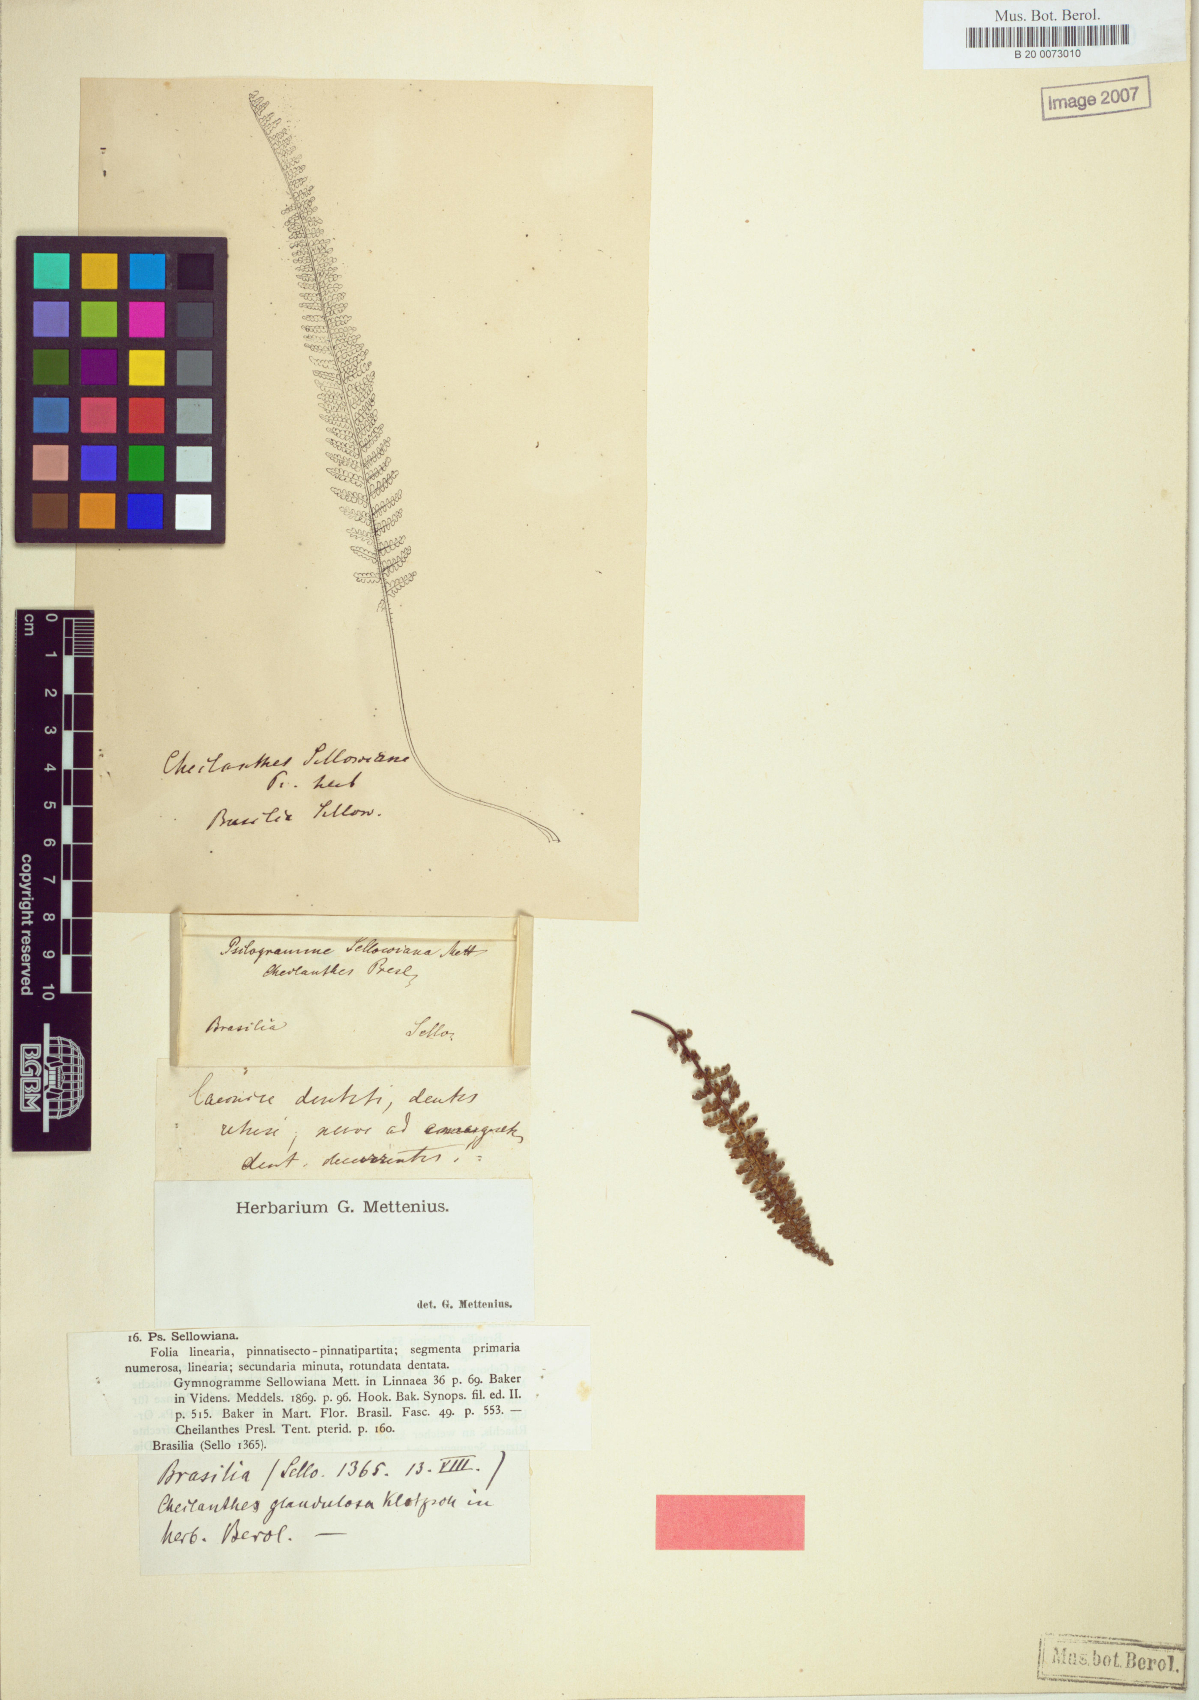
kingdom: Plantae
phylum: Tracheophyta
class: Polypodiopsida
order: Polypodiales
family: Pteridaceae
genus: Tryonia
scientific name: Tryonia sellowiana
